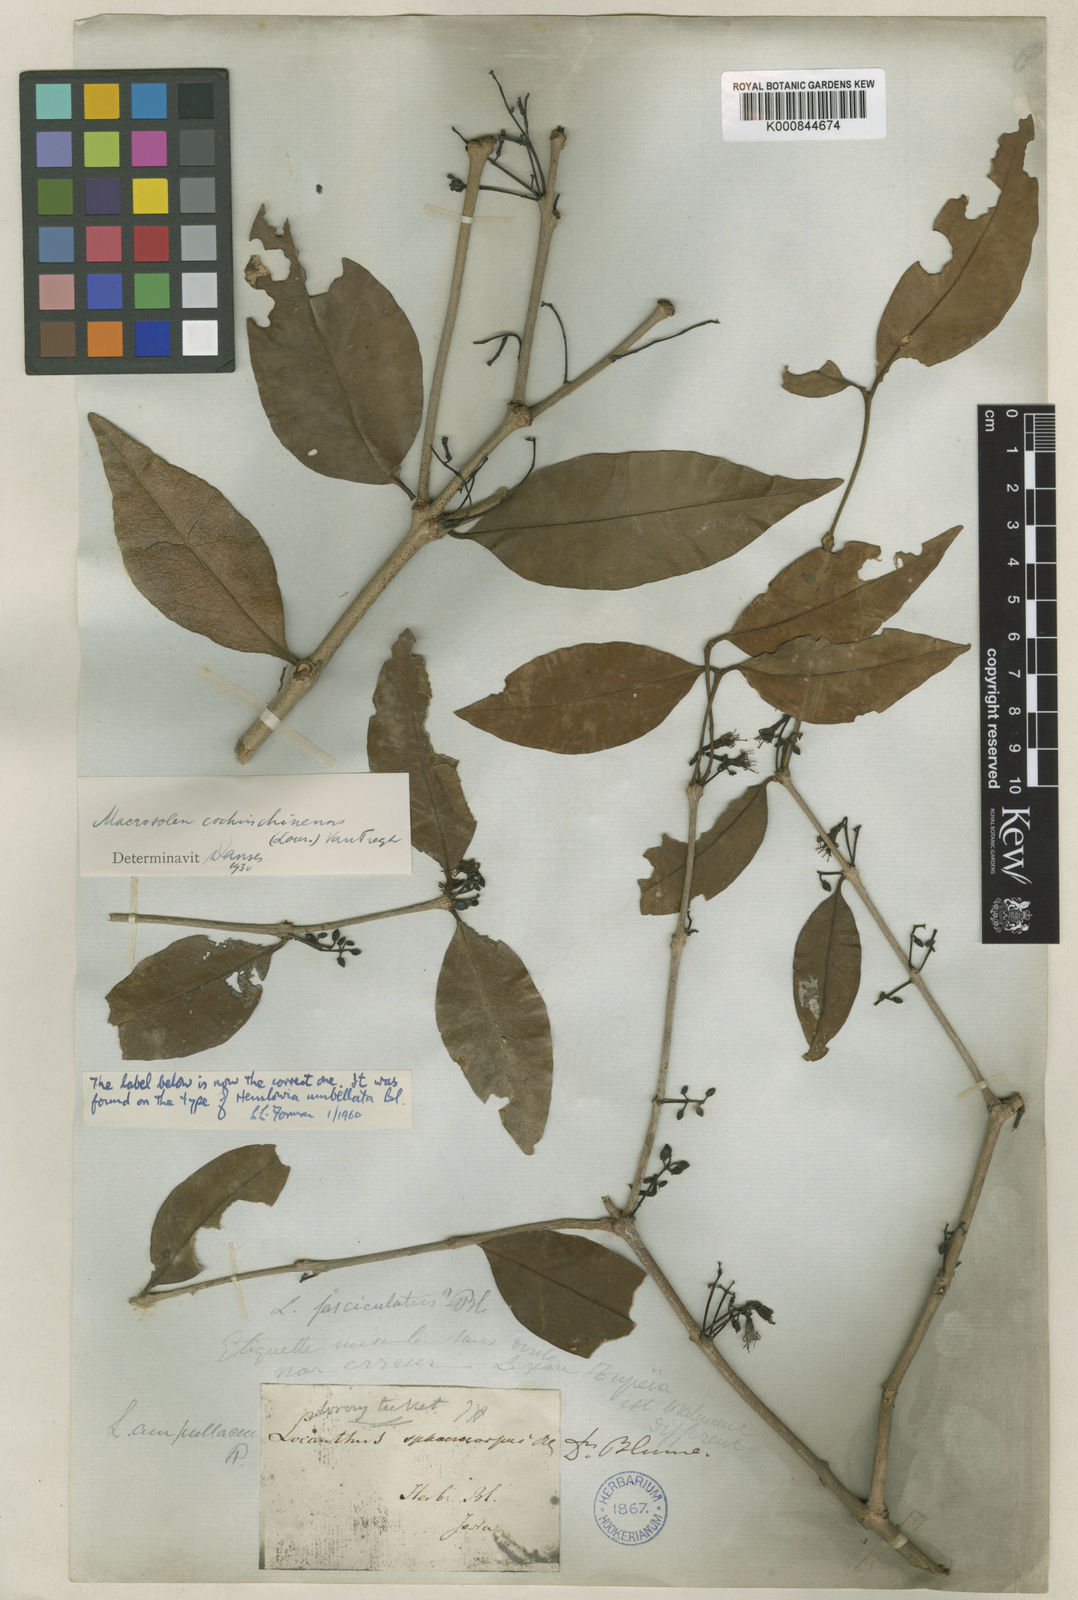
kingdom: Plantae
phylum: Tracheophyta
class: Magnoliopsida
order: Santalales
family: Loranthaceae
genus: Macrosolen
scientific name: Macrosolen cochinchinensis
